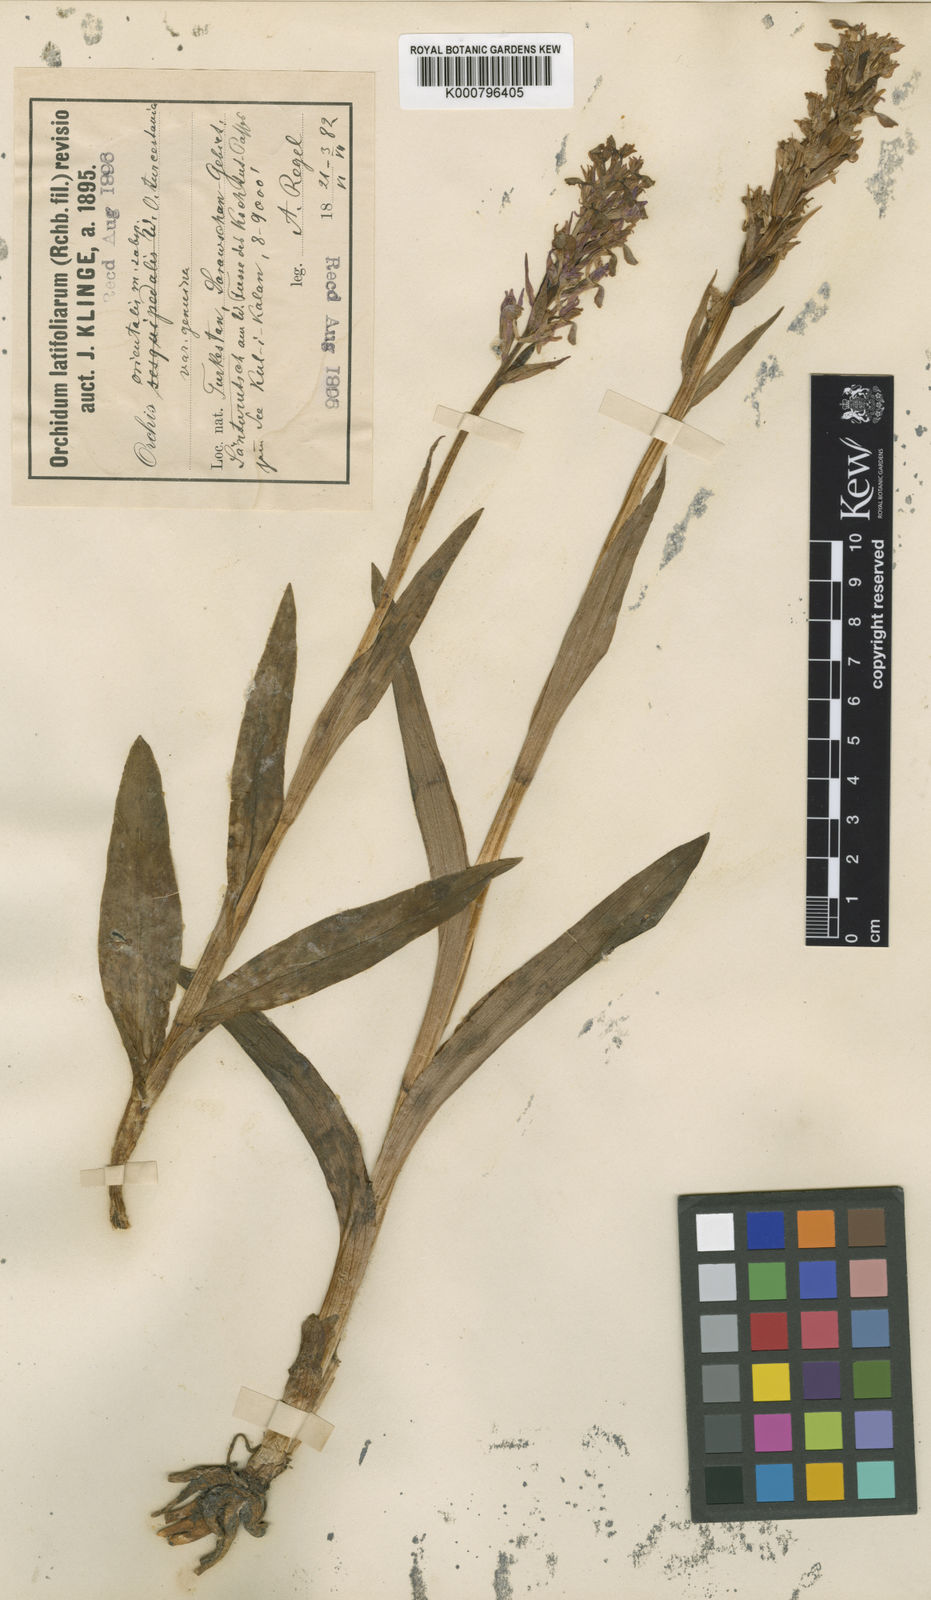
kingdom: Plantae
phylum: Tracheophyta
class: Liliopsida
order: Asparagales
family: Orchidaceae
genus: Dactylorhiza
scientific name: Dactylorhiza incarnata
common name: Early marsh-orchid
